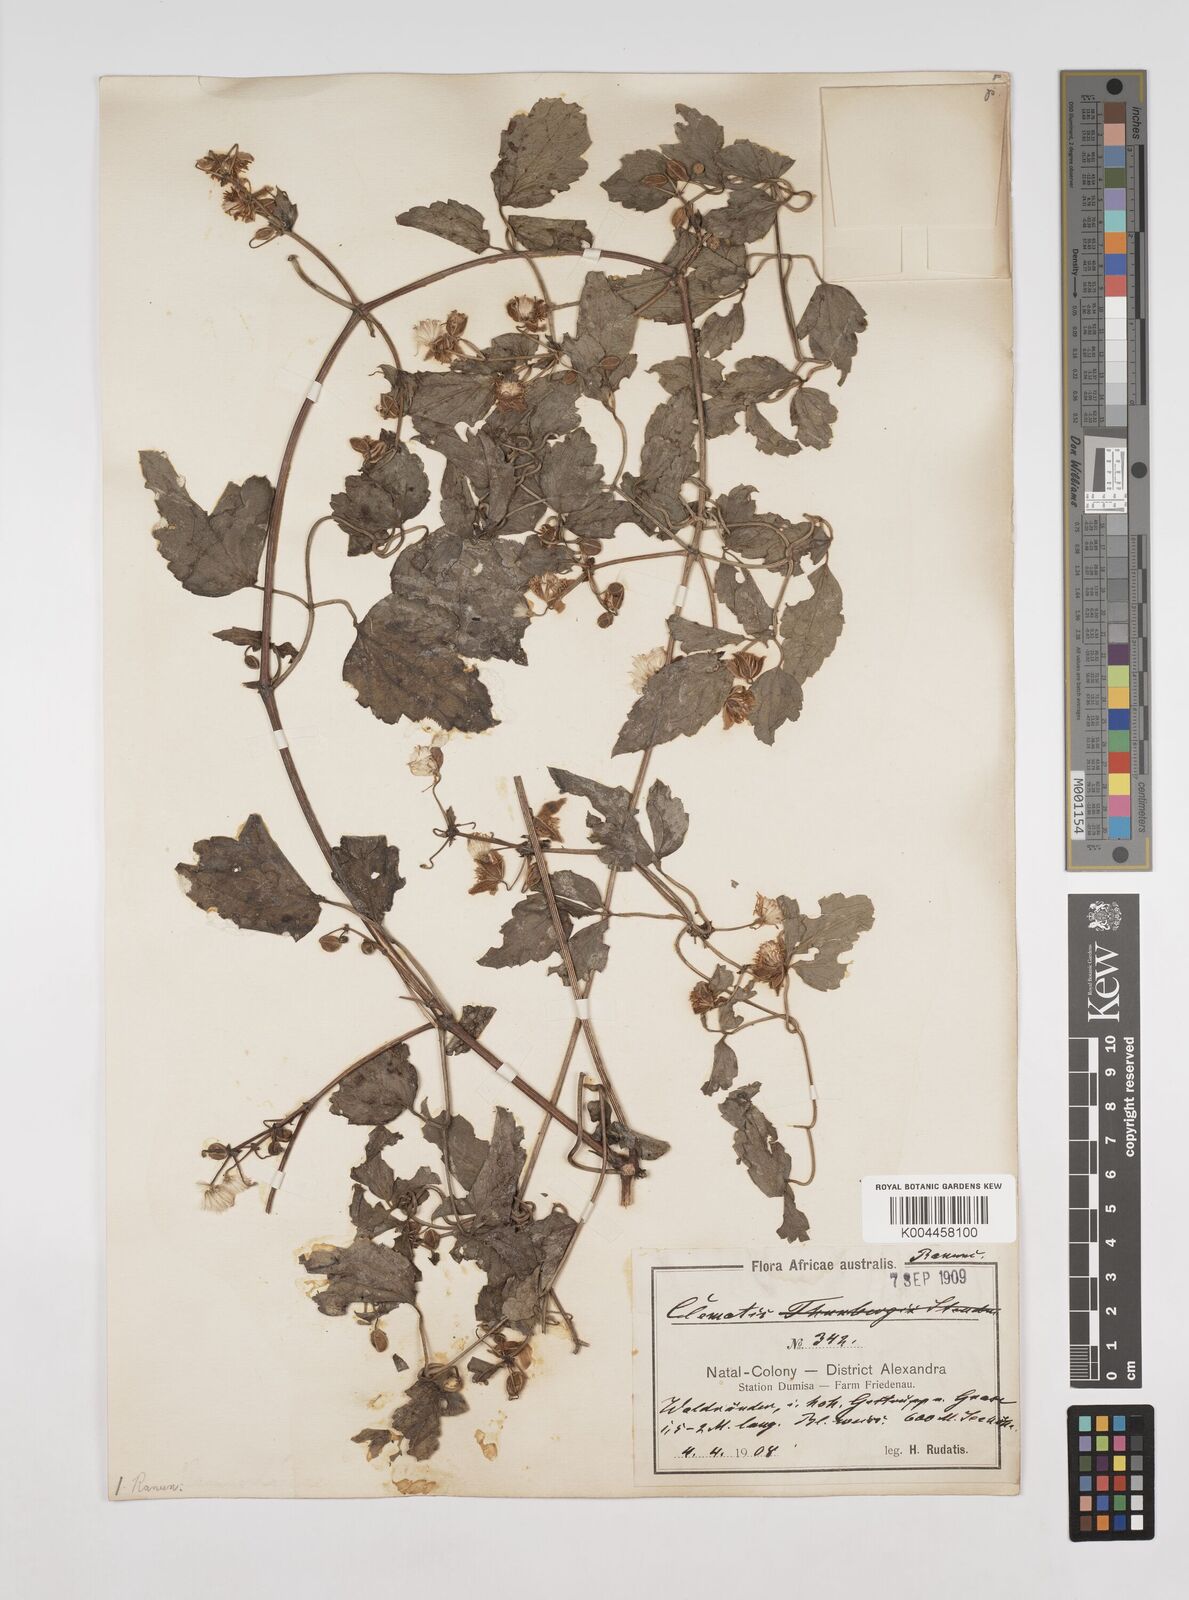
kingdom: Plantae
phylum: Tracheophyta
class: Magnoliopsida
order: Ranunculales
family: Ranunculaceae
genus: Clematis
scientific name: Clematis
